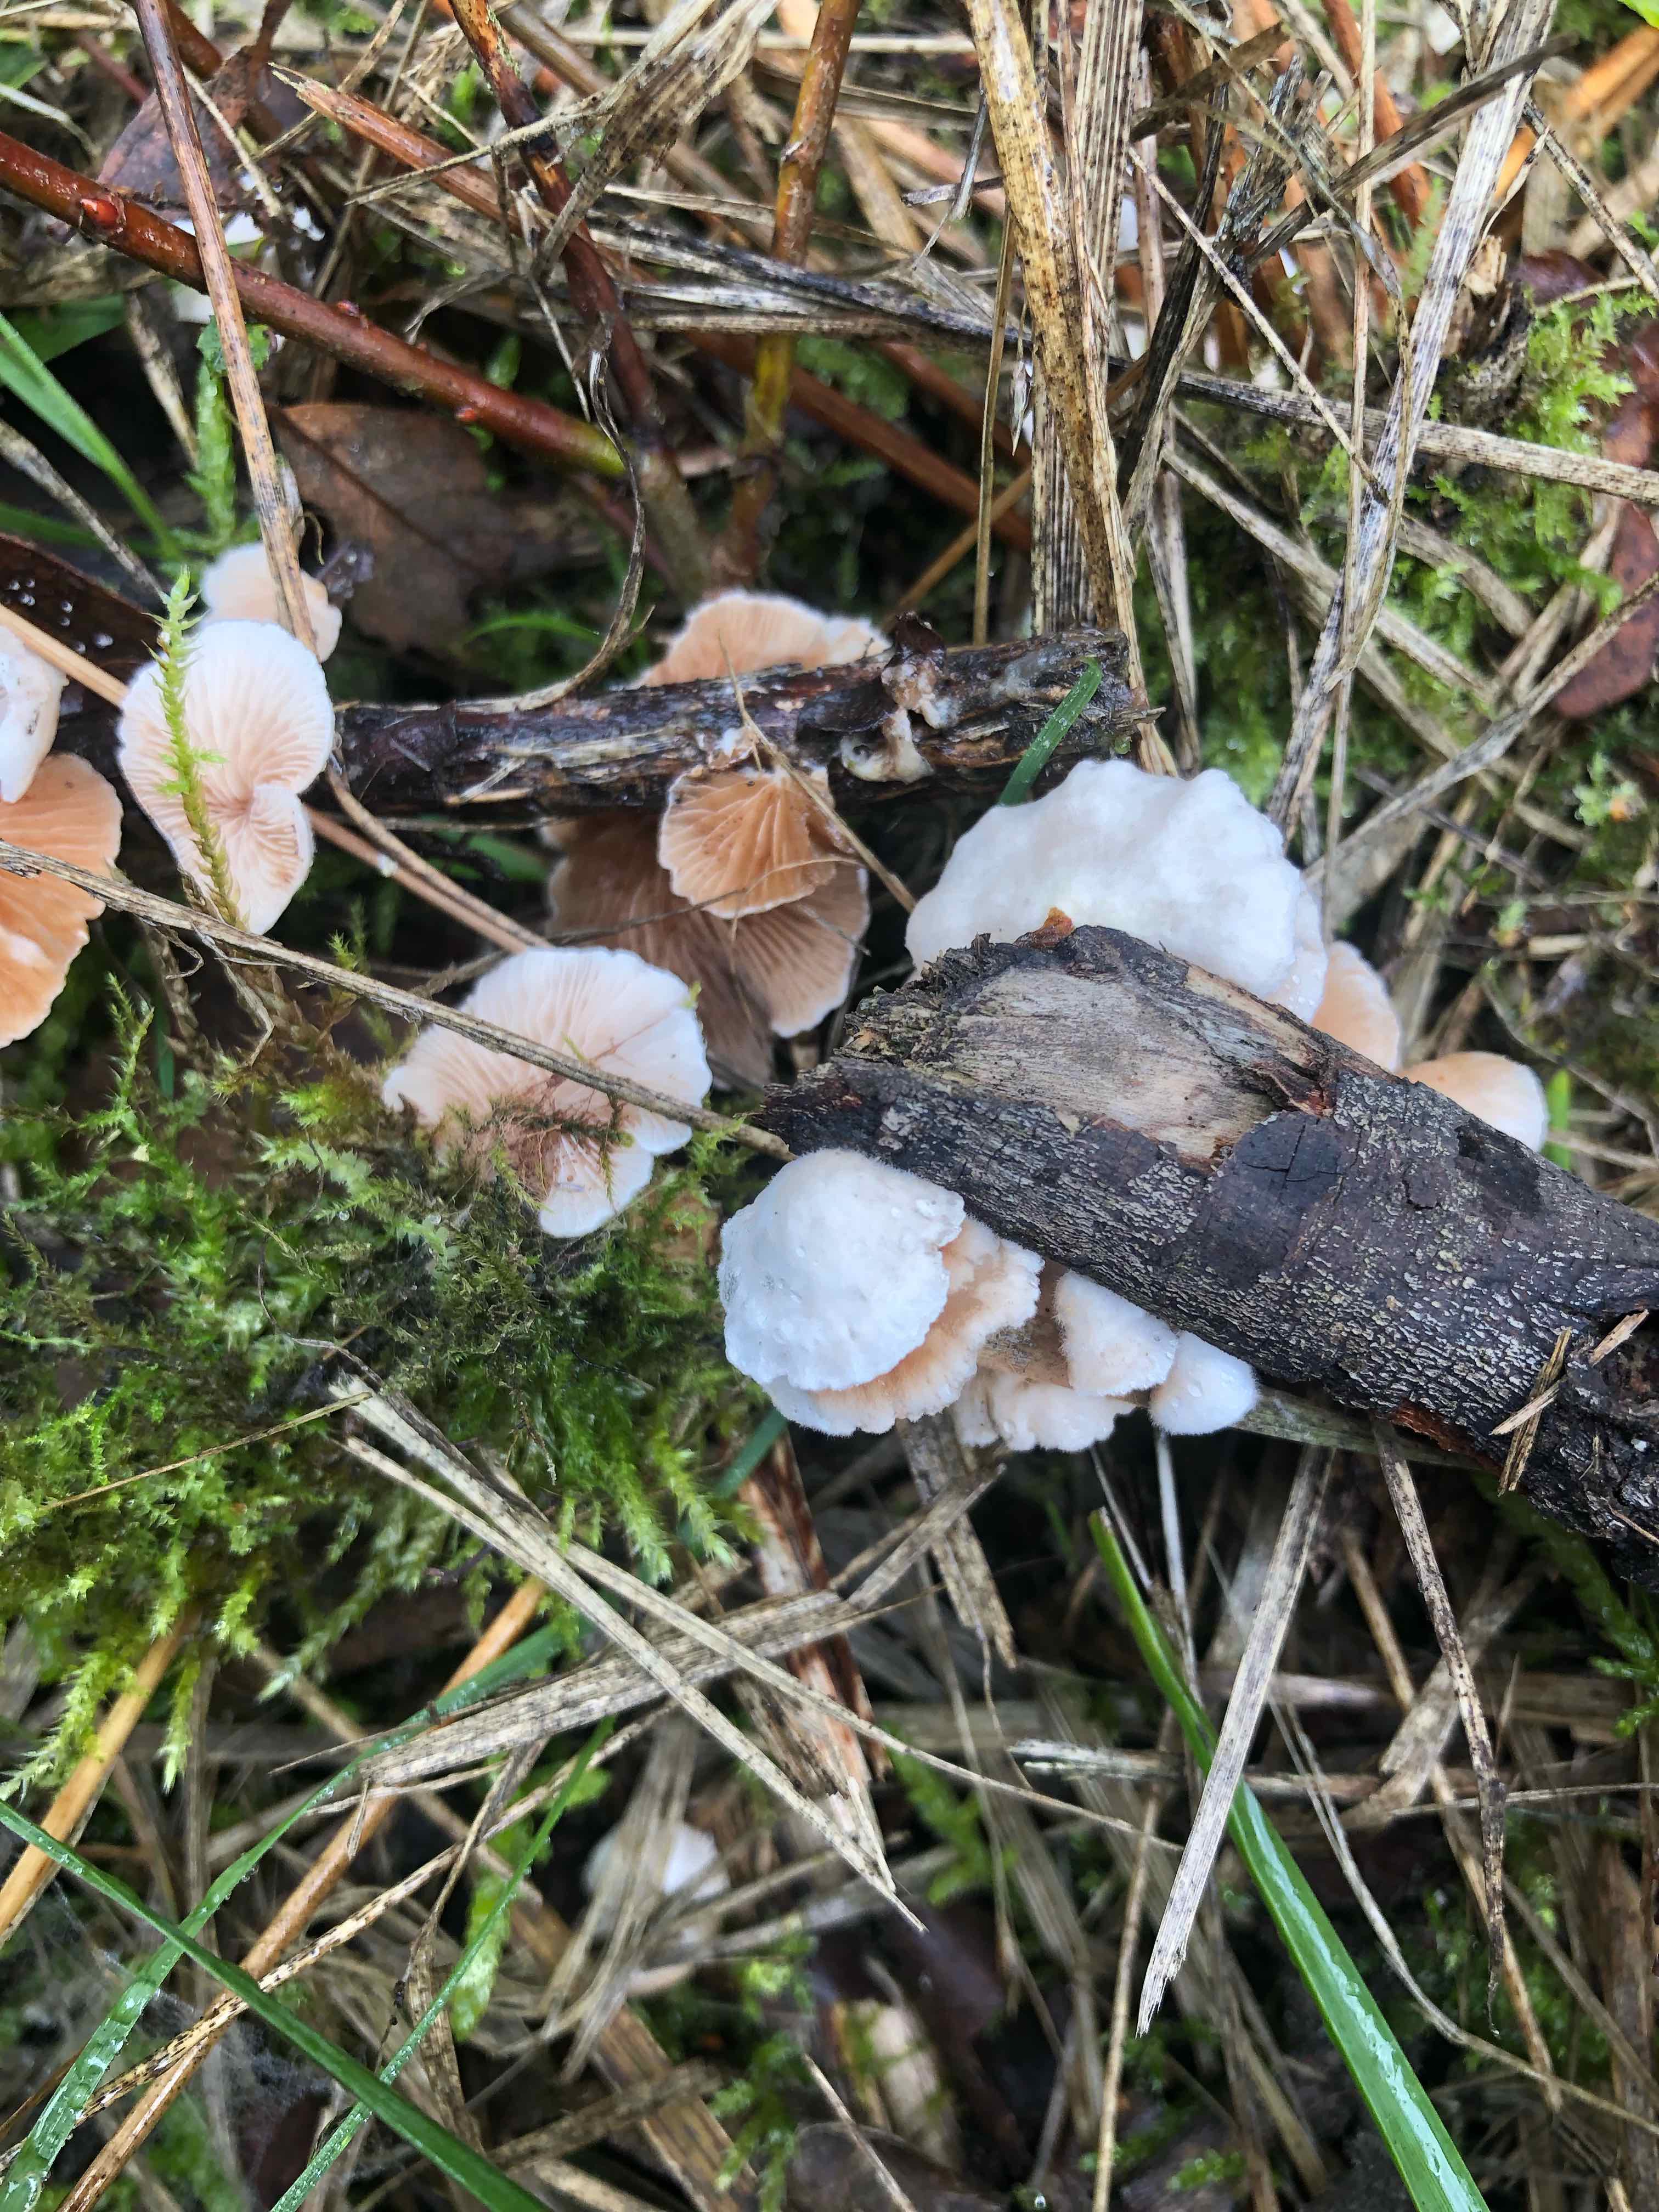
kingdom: Fungi
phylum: Basidiomycota
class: Agaricomycetes
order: Agaricales
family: Crepidotaceae
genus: Crepidotus
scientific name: Crepidotus
